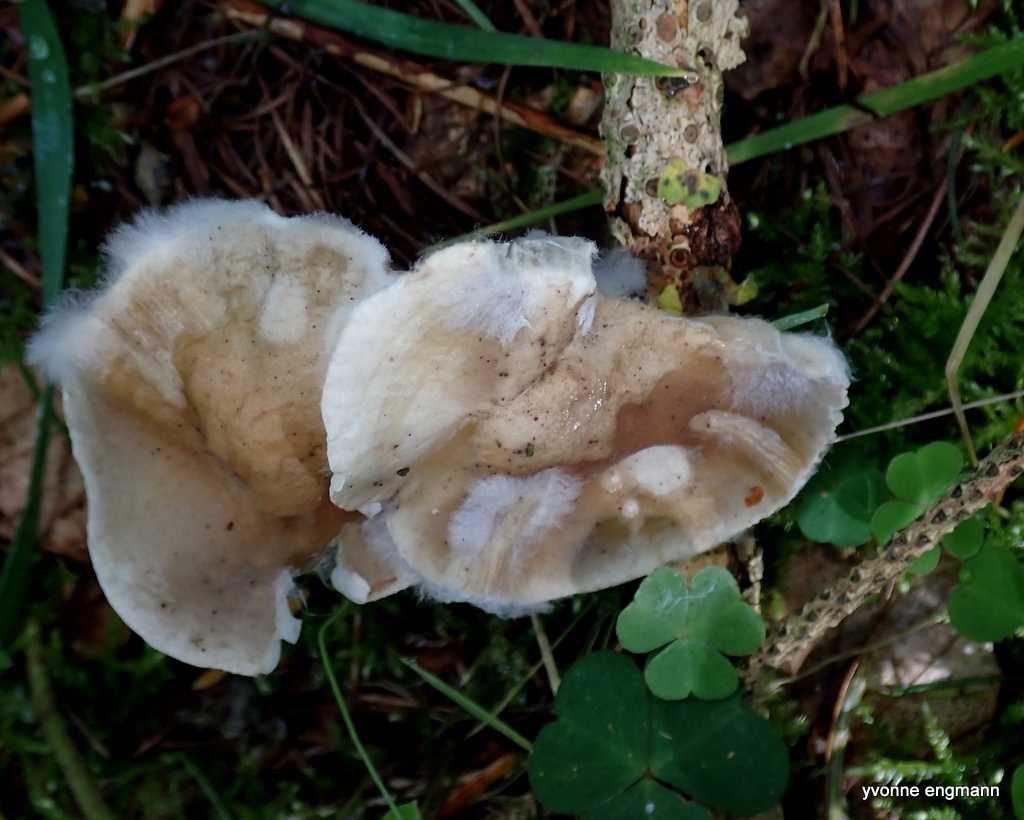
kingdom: Fungi
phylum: Ascomycota
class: Sordariomycetes
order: Hypocreales
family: Hypocreaceae
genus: Hypomyces
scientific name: Hypomyces
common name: snylteskorpe
